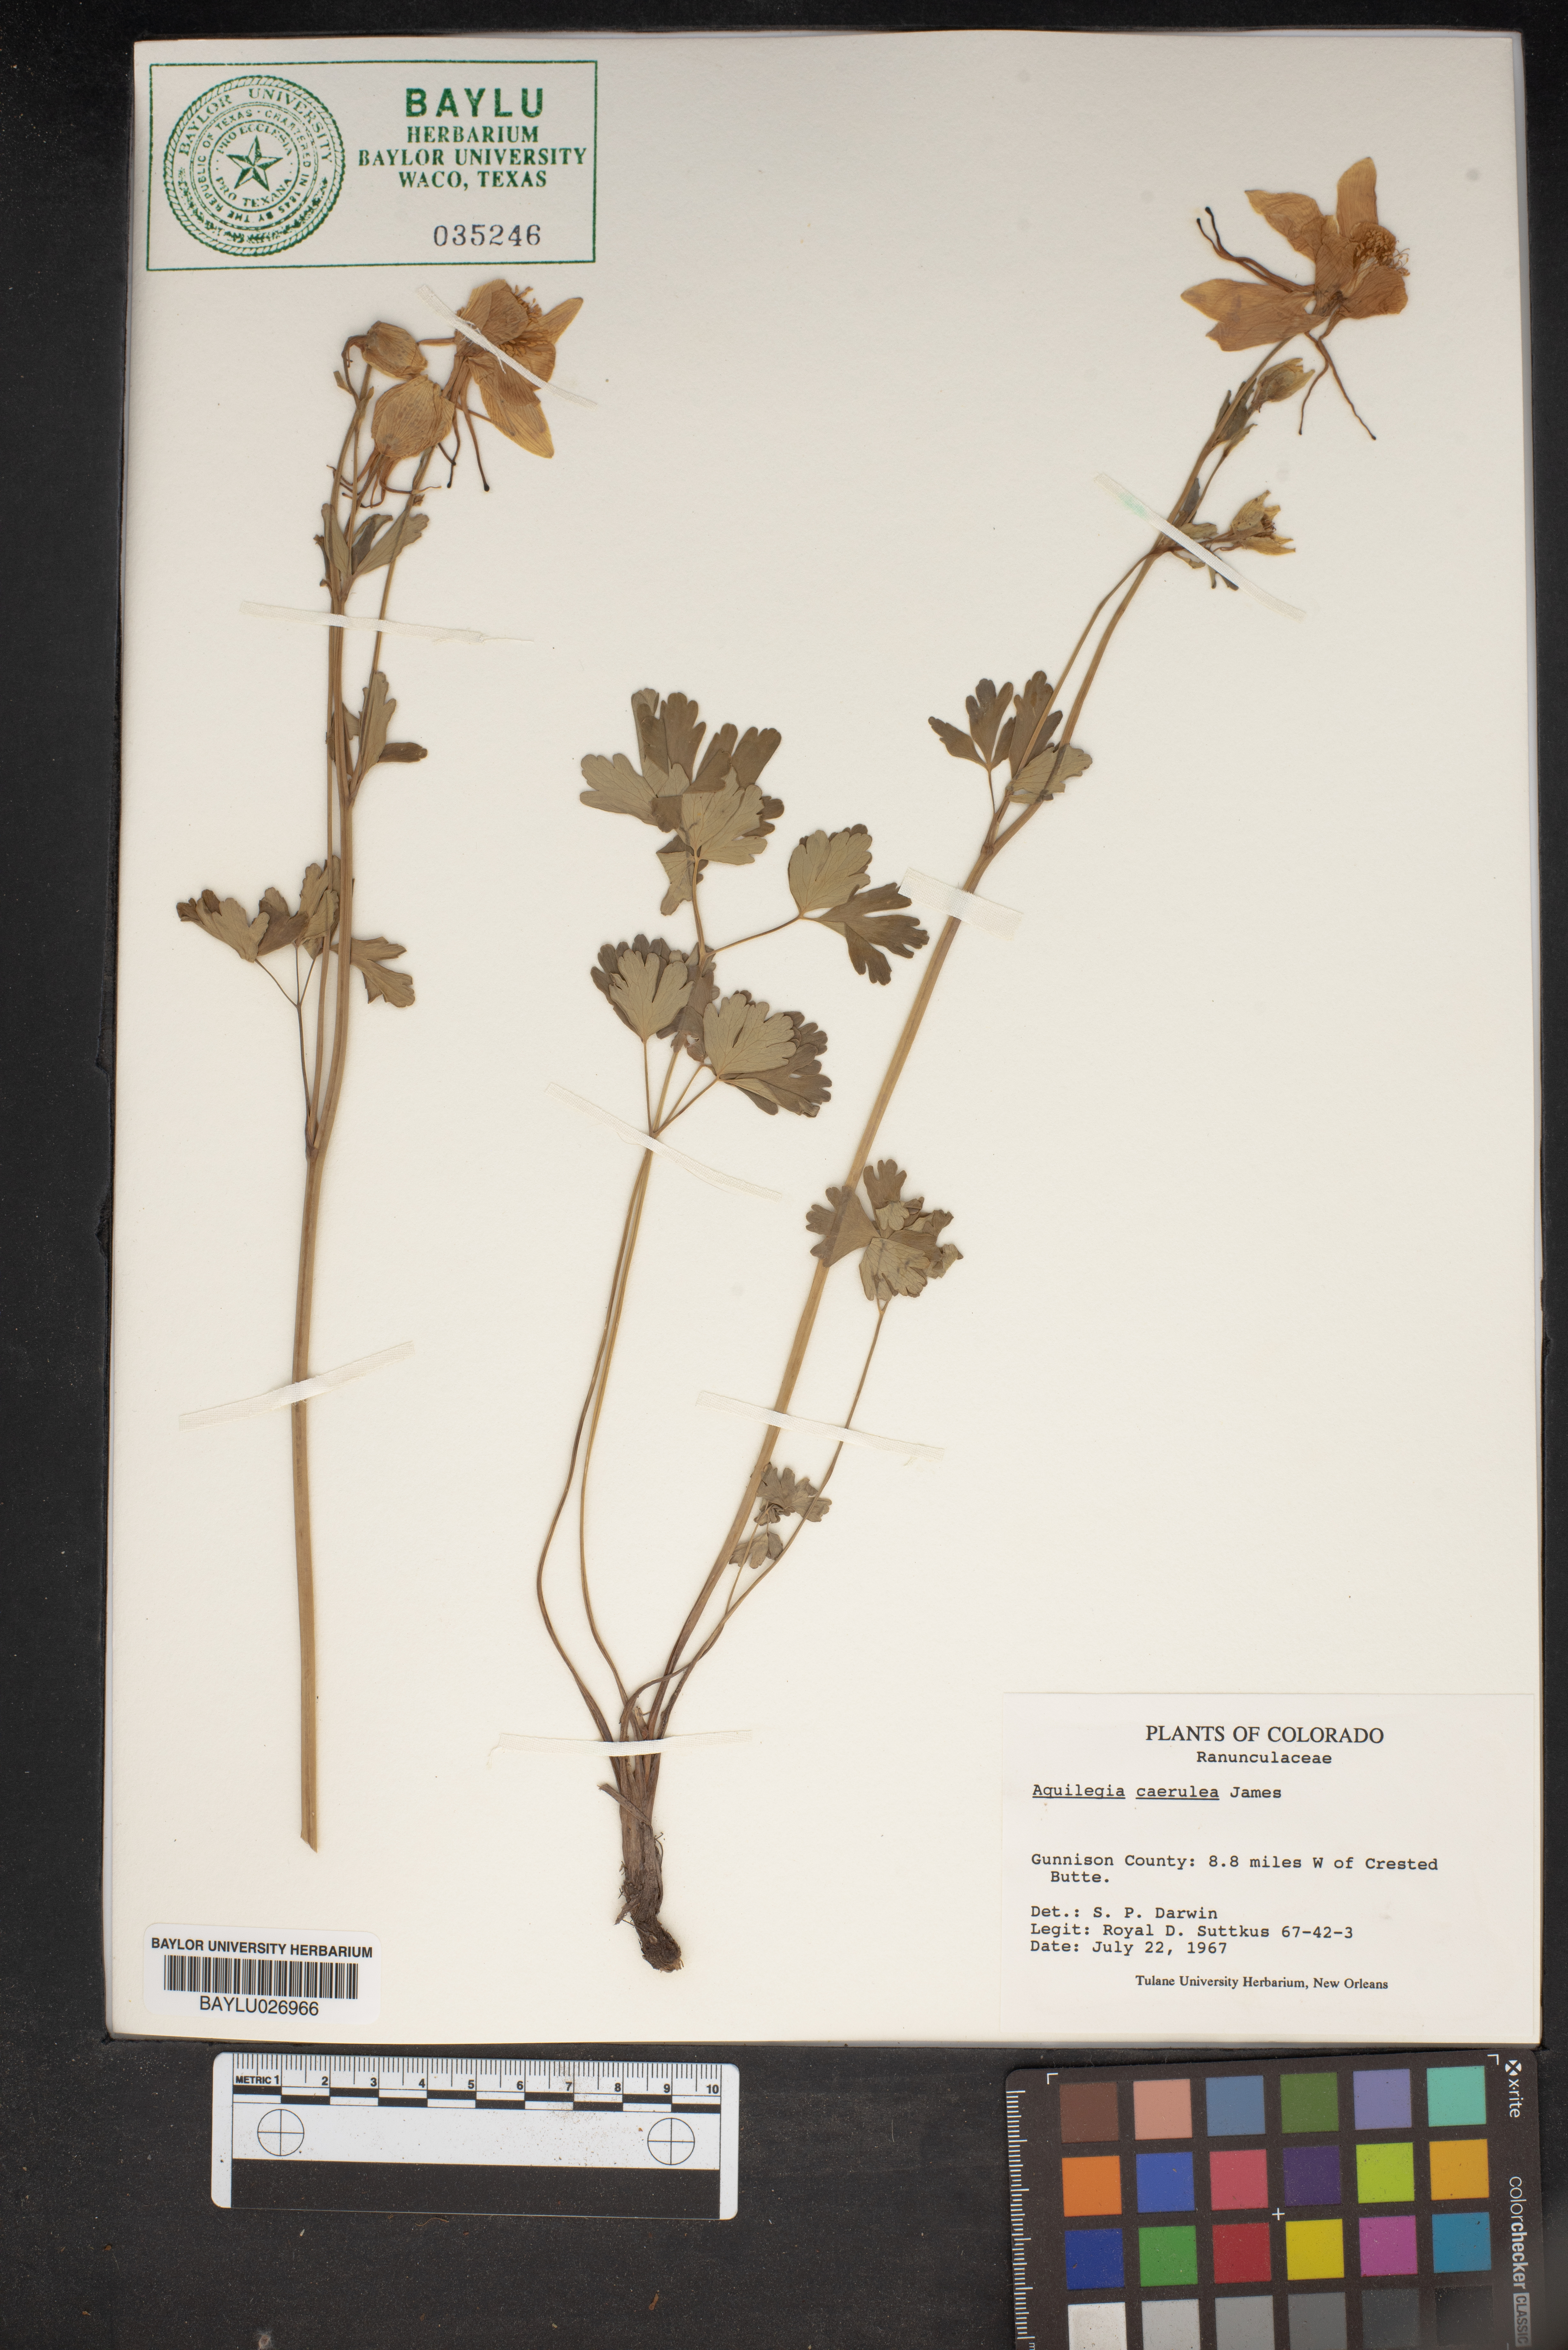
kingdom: Plantae
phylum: Tracheophyta
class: Magnoliopsida
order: Ranunculales
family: Ranunculaceae
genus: Aquilegia
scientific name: Aquilegia coerulea
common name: Rocky mountain columbine
